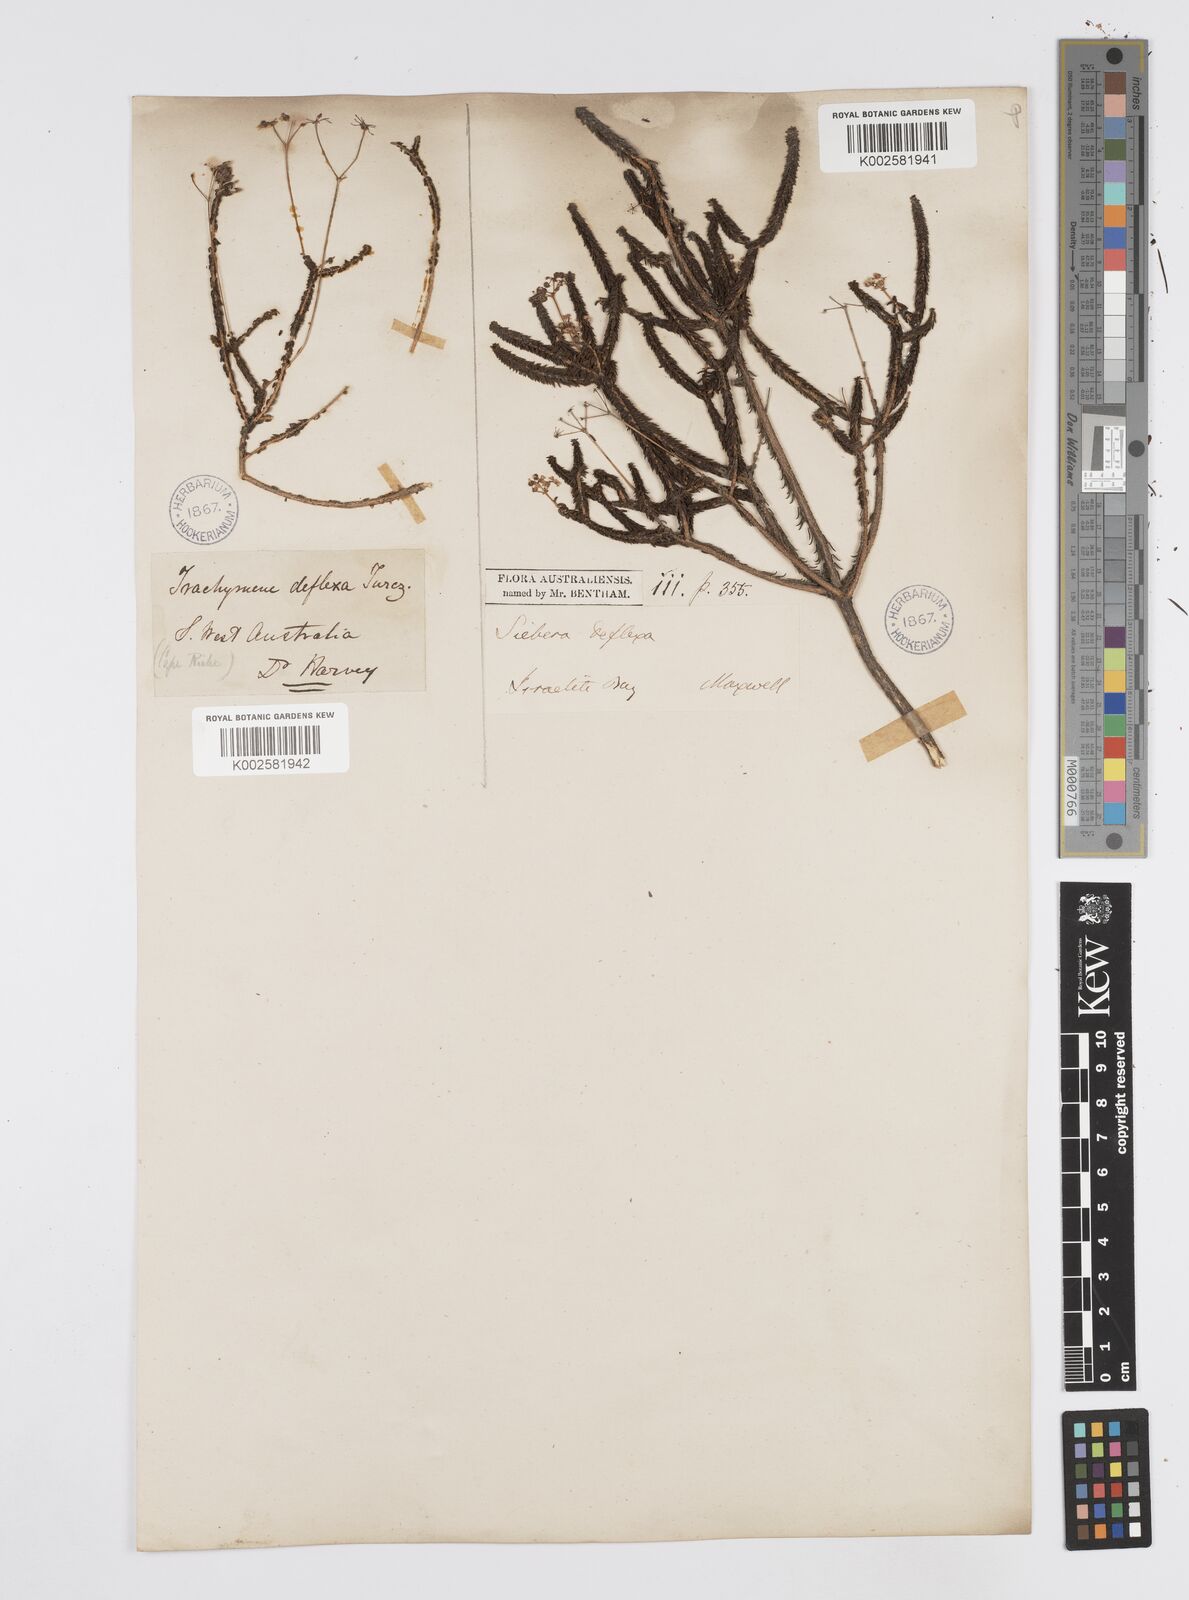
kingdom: Plantae
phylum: Tracheophyta
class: Magnoliopsida
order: Apiales
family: Apiaceae
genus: Platysace
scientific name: Platysace deflexa
